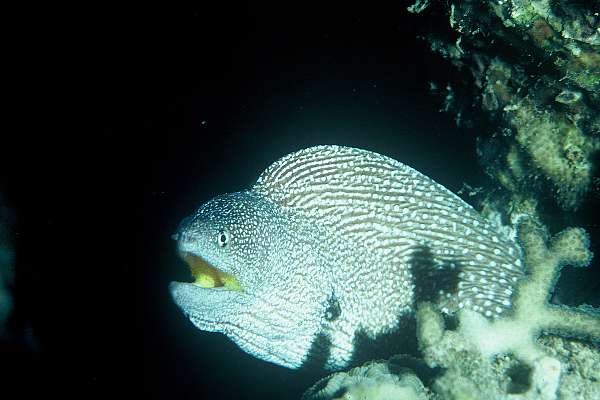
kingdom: Animalia
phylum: Chordata
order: Anguilliformes
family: Muraenidae
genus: Gymnothorax
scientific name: Gymnothorax nudivomer
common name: Yellowmouth moray
